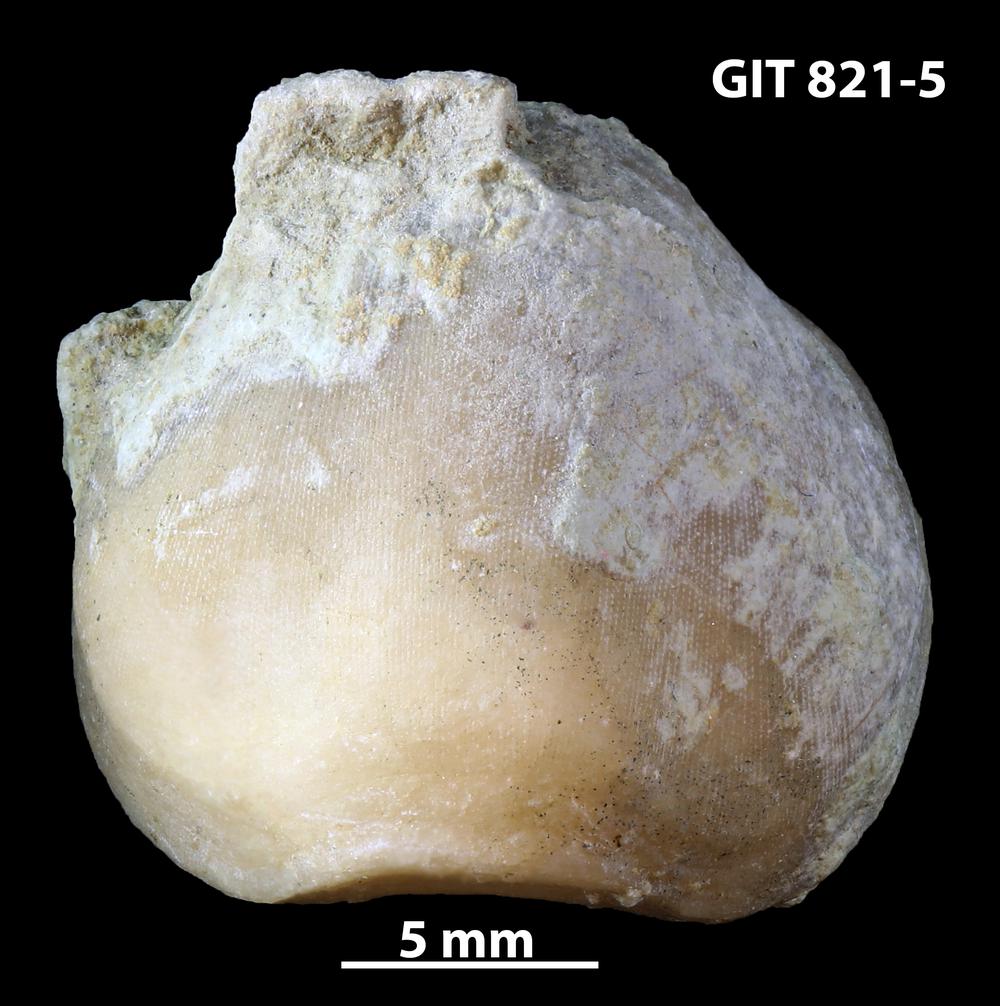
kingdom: Animalia
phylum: Brachiopoda
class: Rhynchonellata
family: Porambonitidae
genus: Porambonites
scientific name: Porambonites
